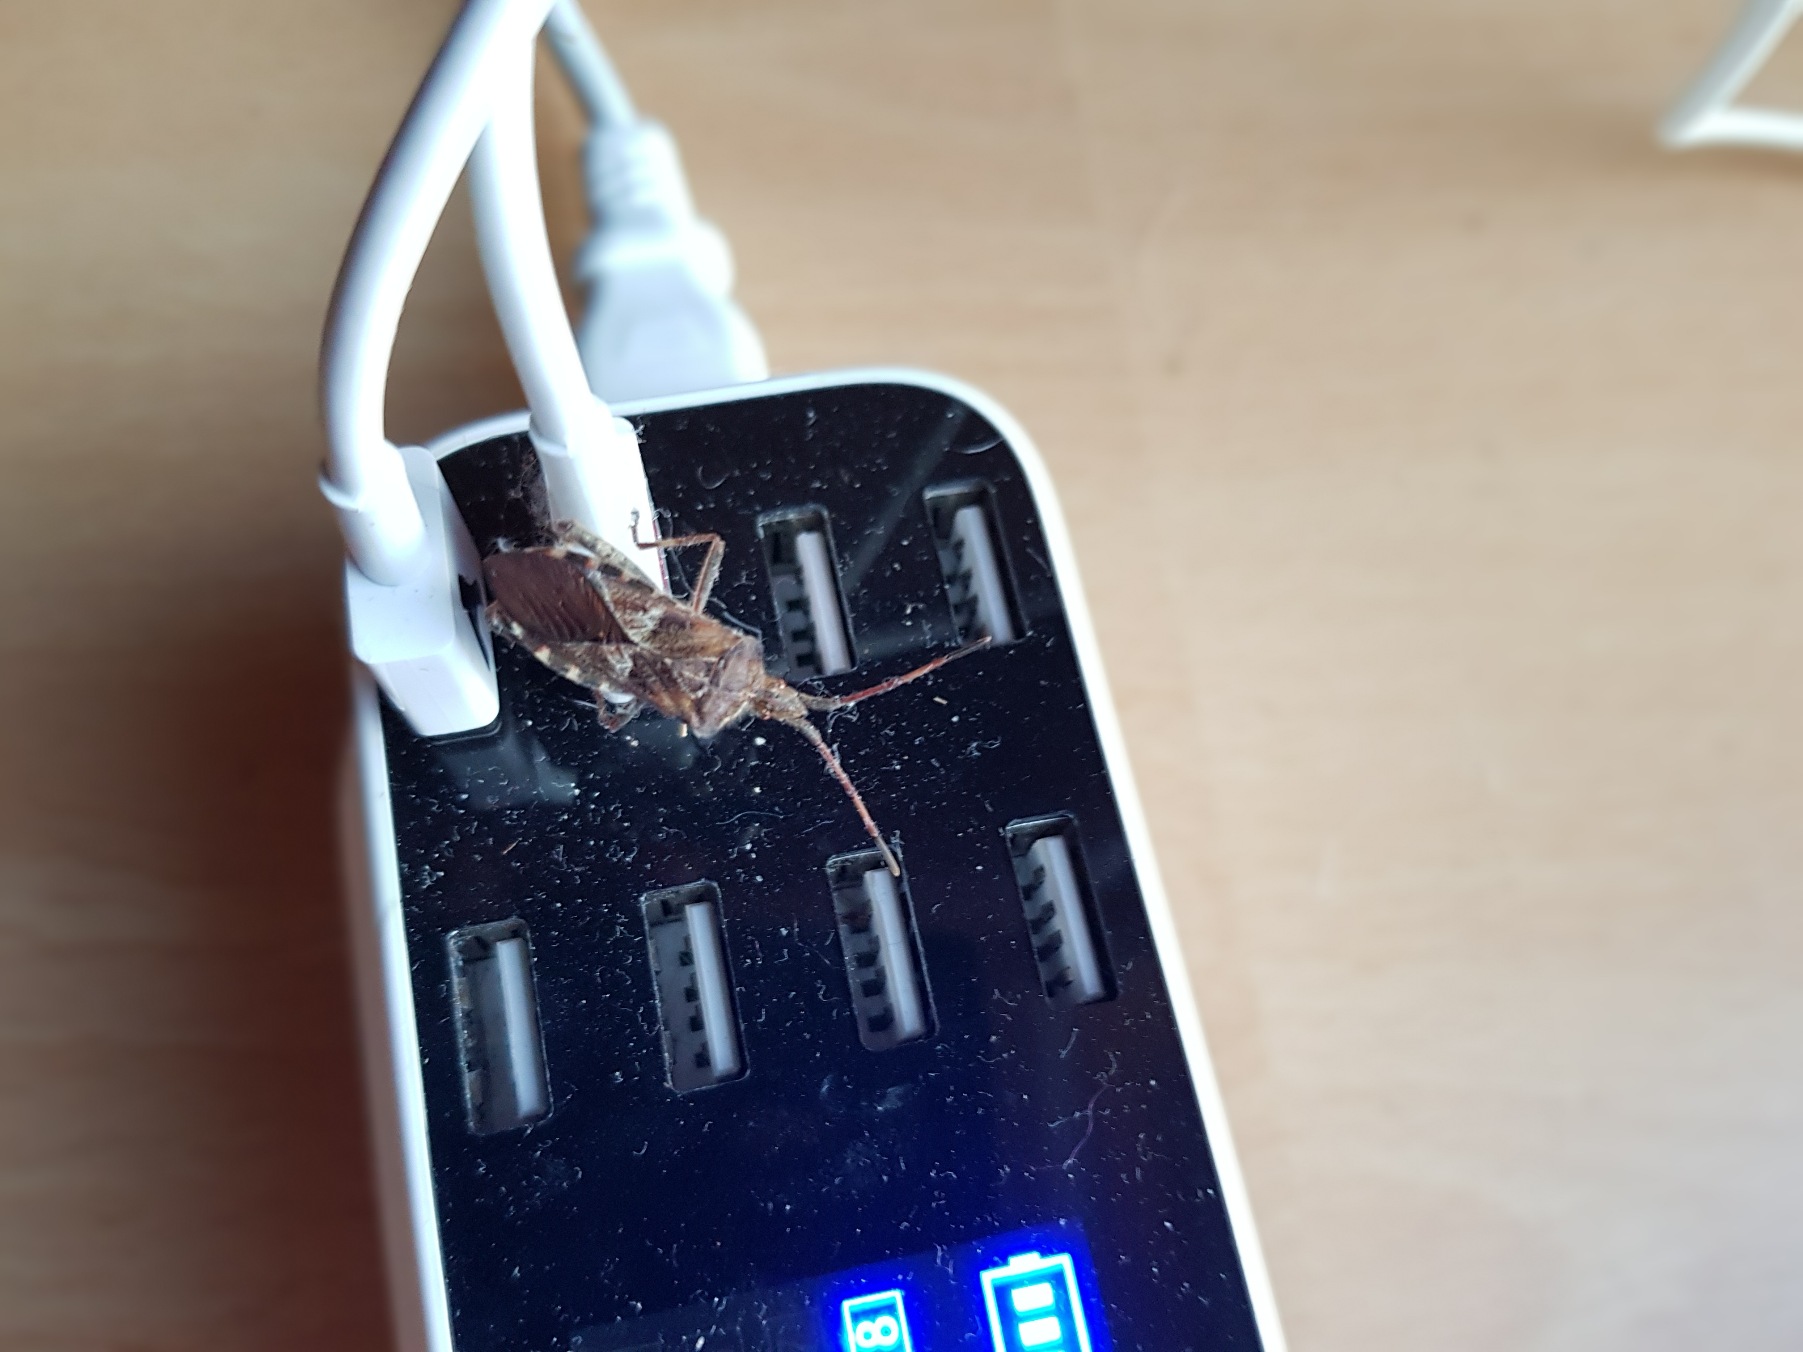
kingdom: Animalia
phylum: Arthropoda
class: Insecta
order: Hemiptera
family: Coreidae
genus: Leptoglossus
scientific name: Leptoglossus occidentalis
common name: Amerikansk fyrretæge
